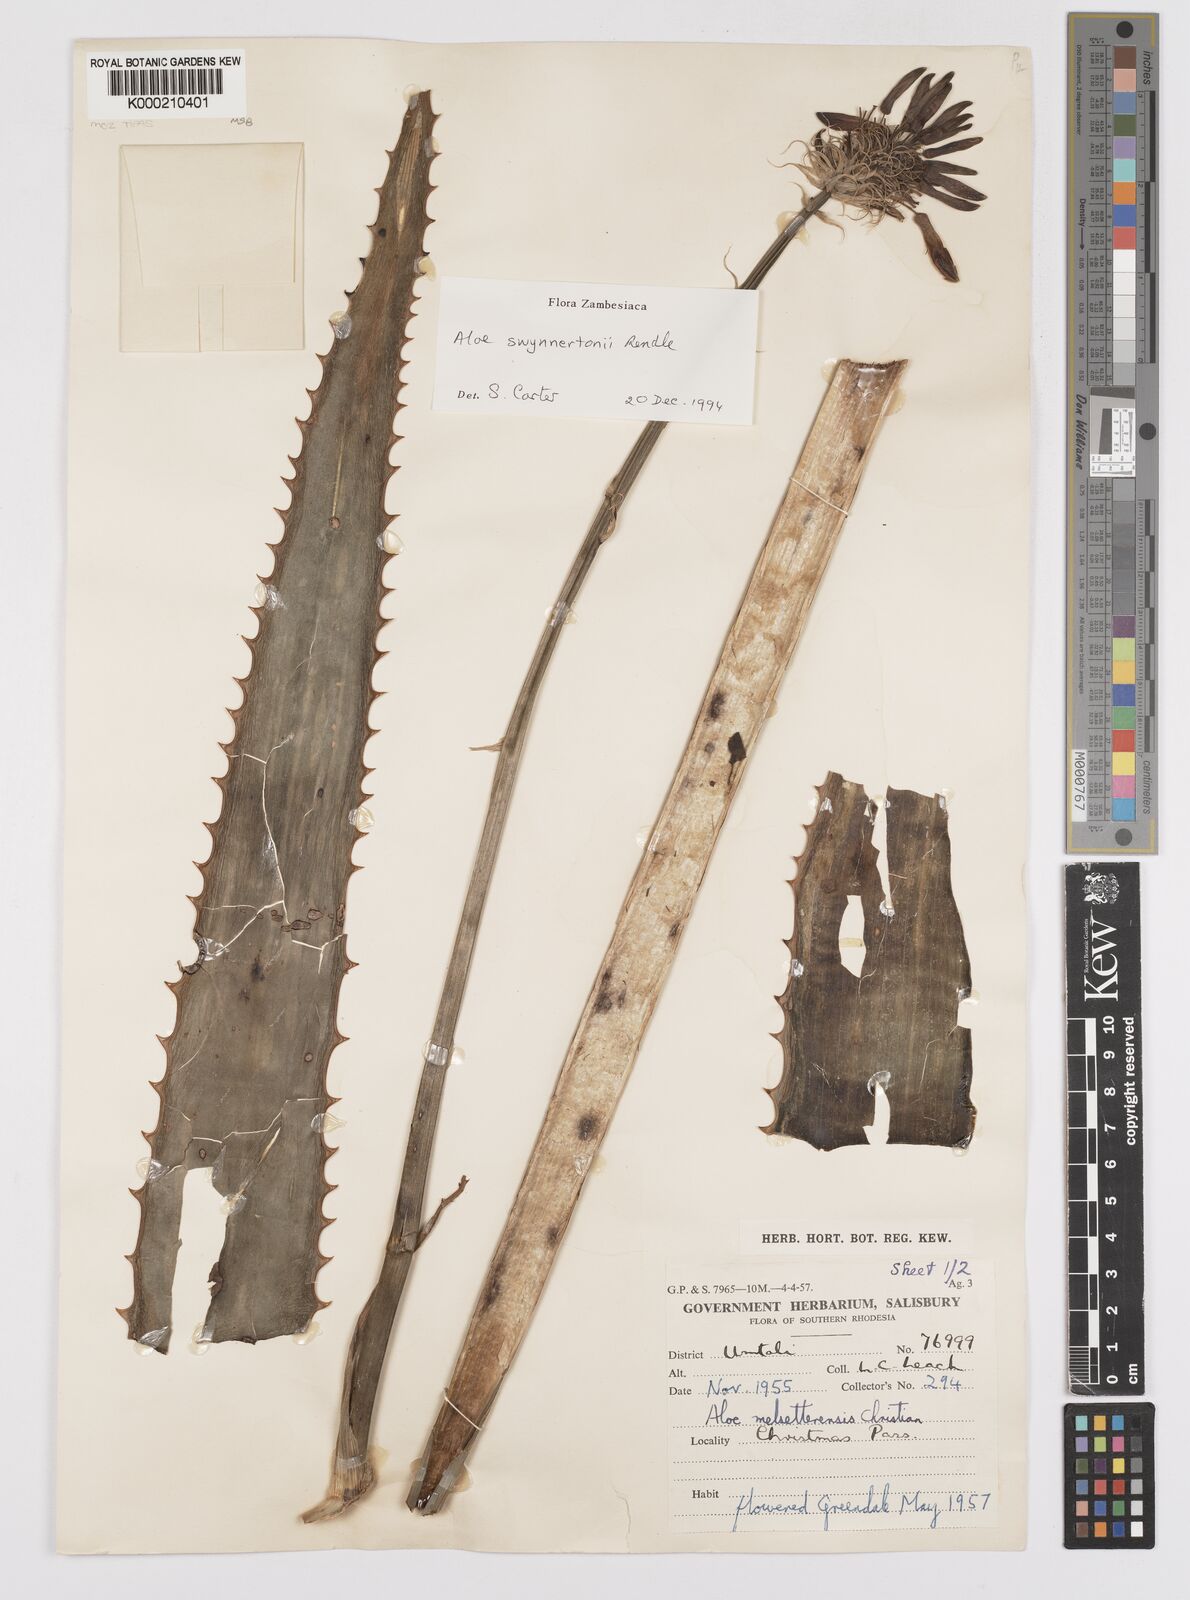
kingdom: Plantae
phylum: Tracheophyta
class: Liliopsida
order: Asparagales
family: Asphodelaceae
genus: Aloe
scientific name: Aloe swynnertonii
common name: Swynnerton's aloe
